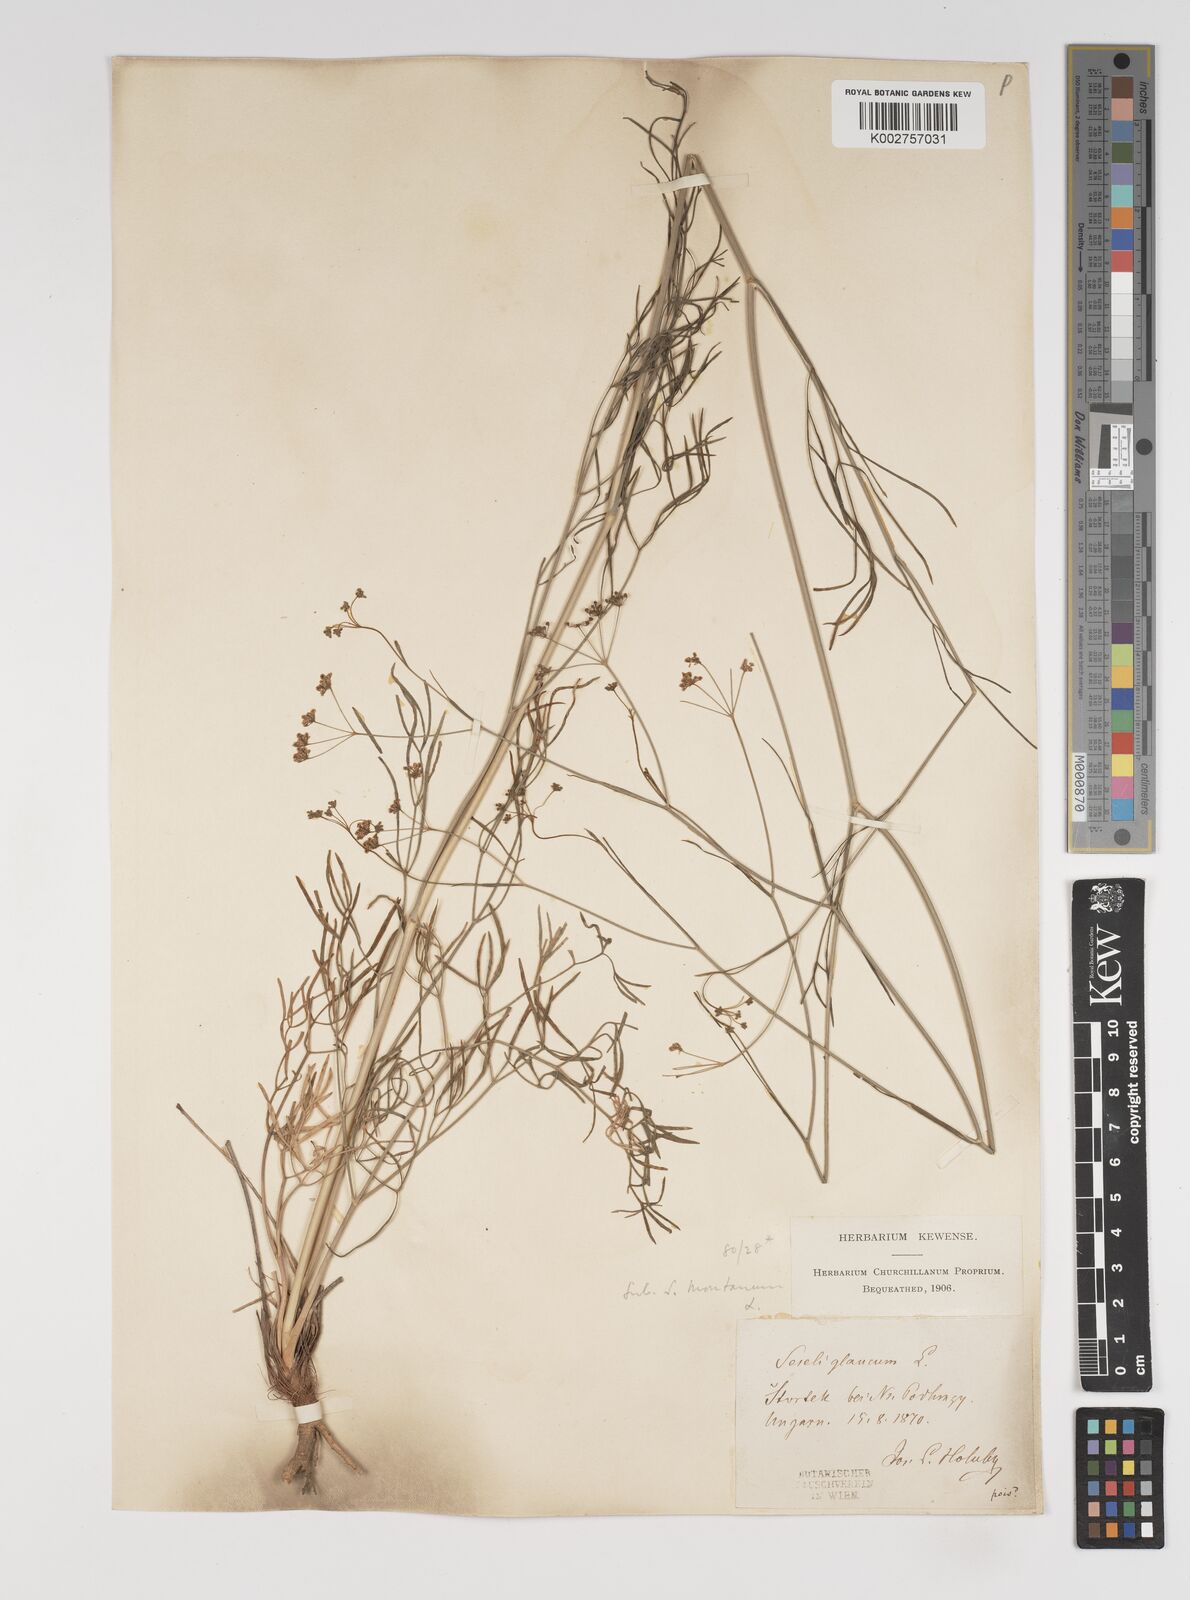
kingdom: Plantae
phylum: Tracheophyta
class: Magnoliopsida
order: Apiales
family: Apiaceae
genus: Seseli
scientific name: Seseli montanum
